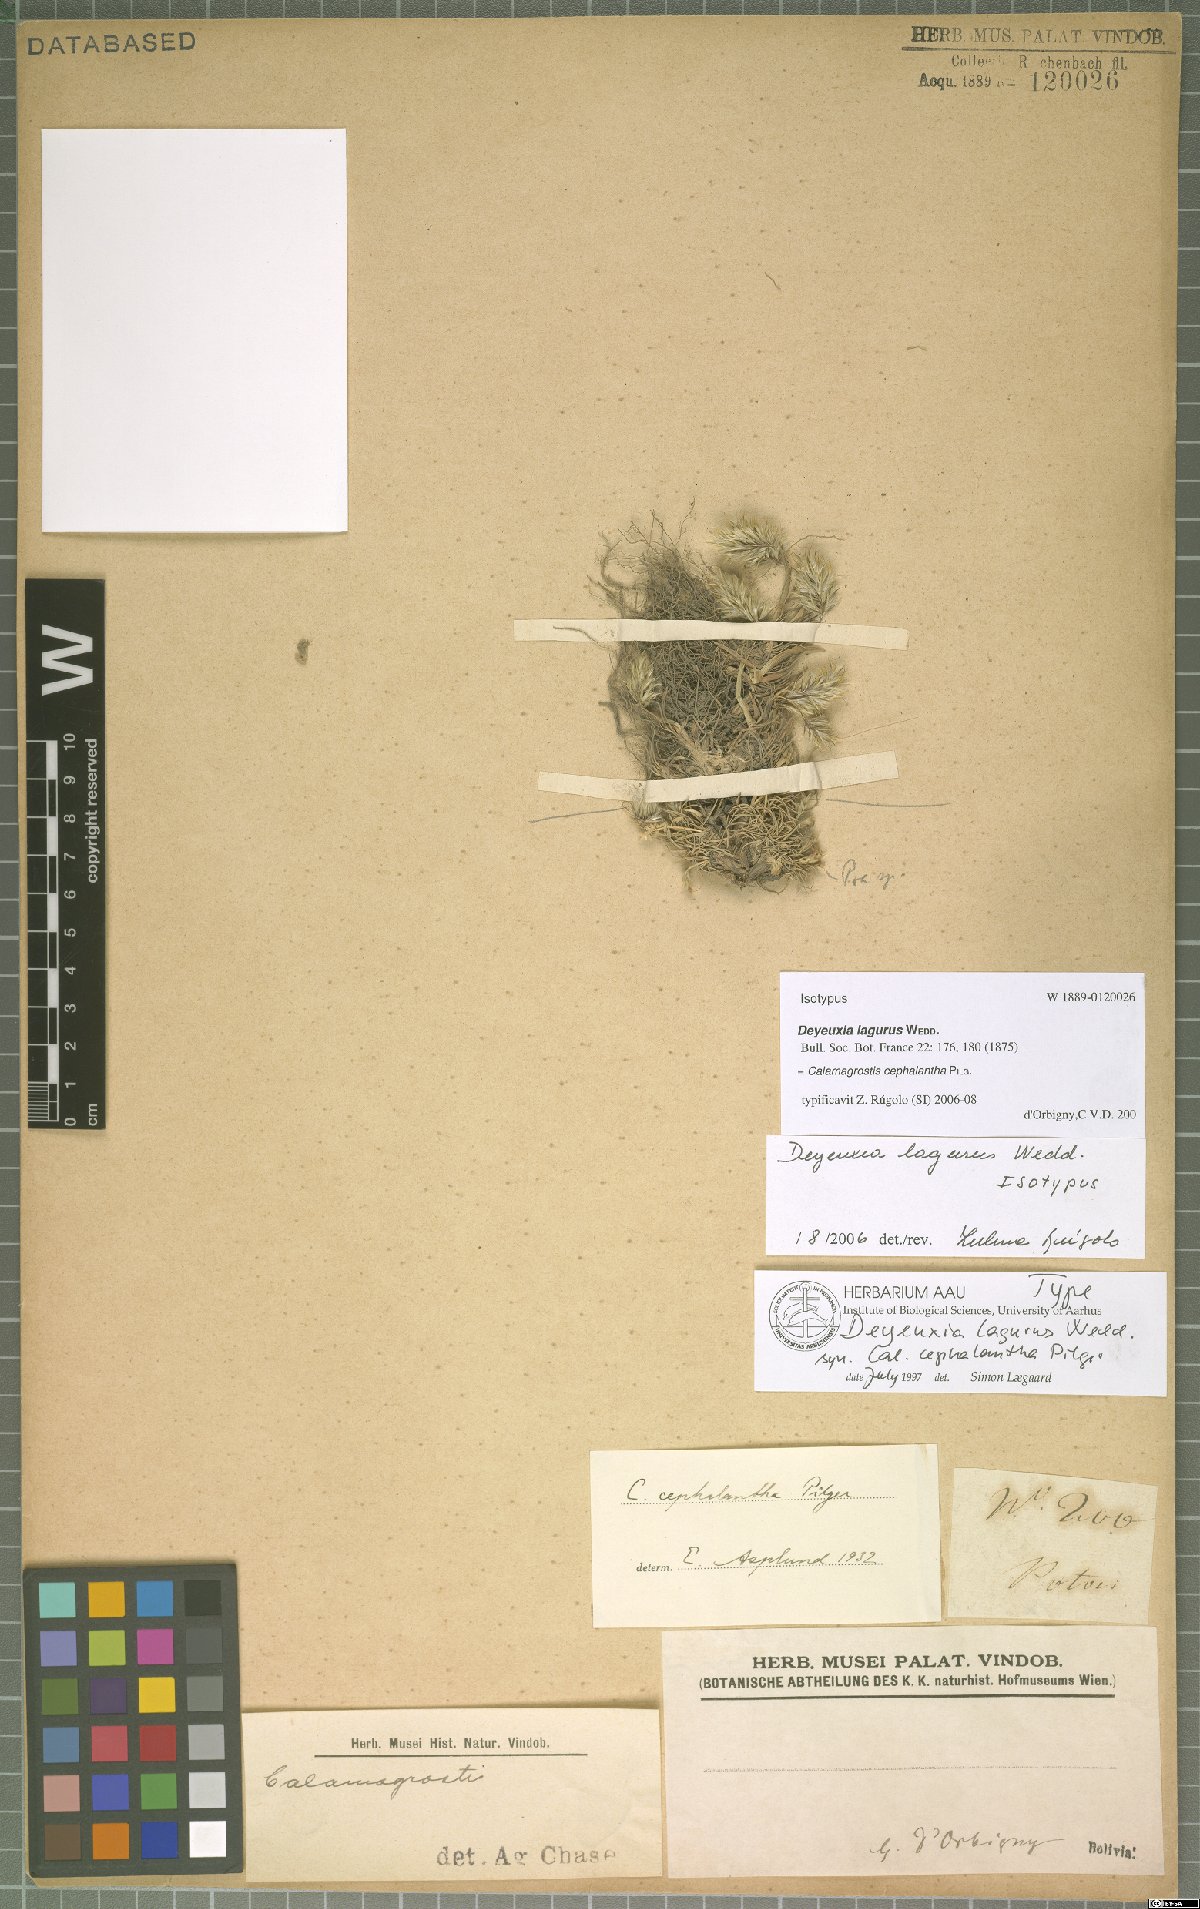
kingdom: Plantae
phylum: Tracheophyta
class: Liliopsida
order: Poales
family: Poaceae
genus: Cinnagrostis
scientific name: Cinnagrostis lagurus
